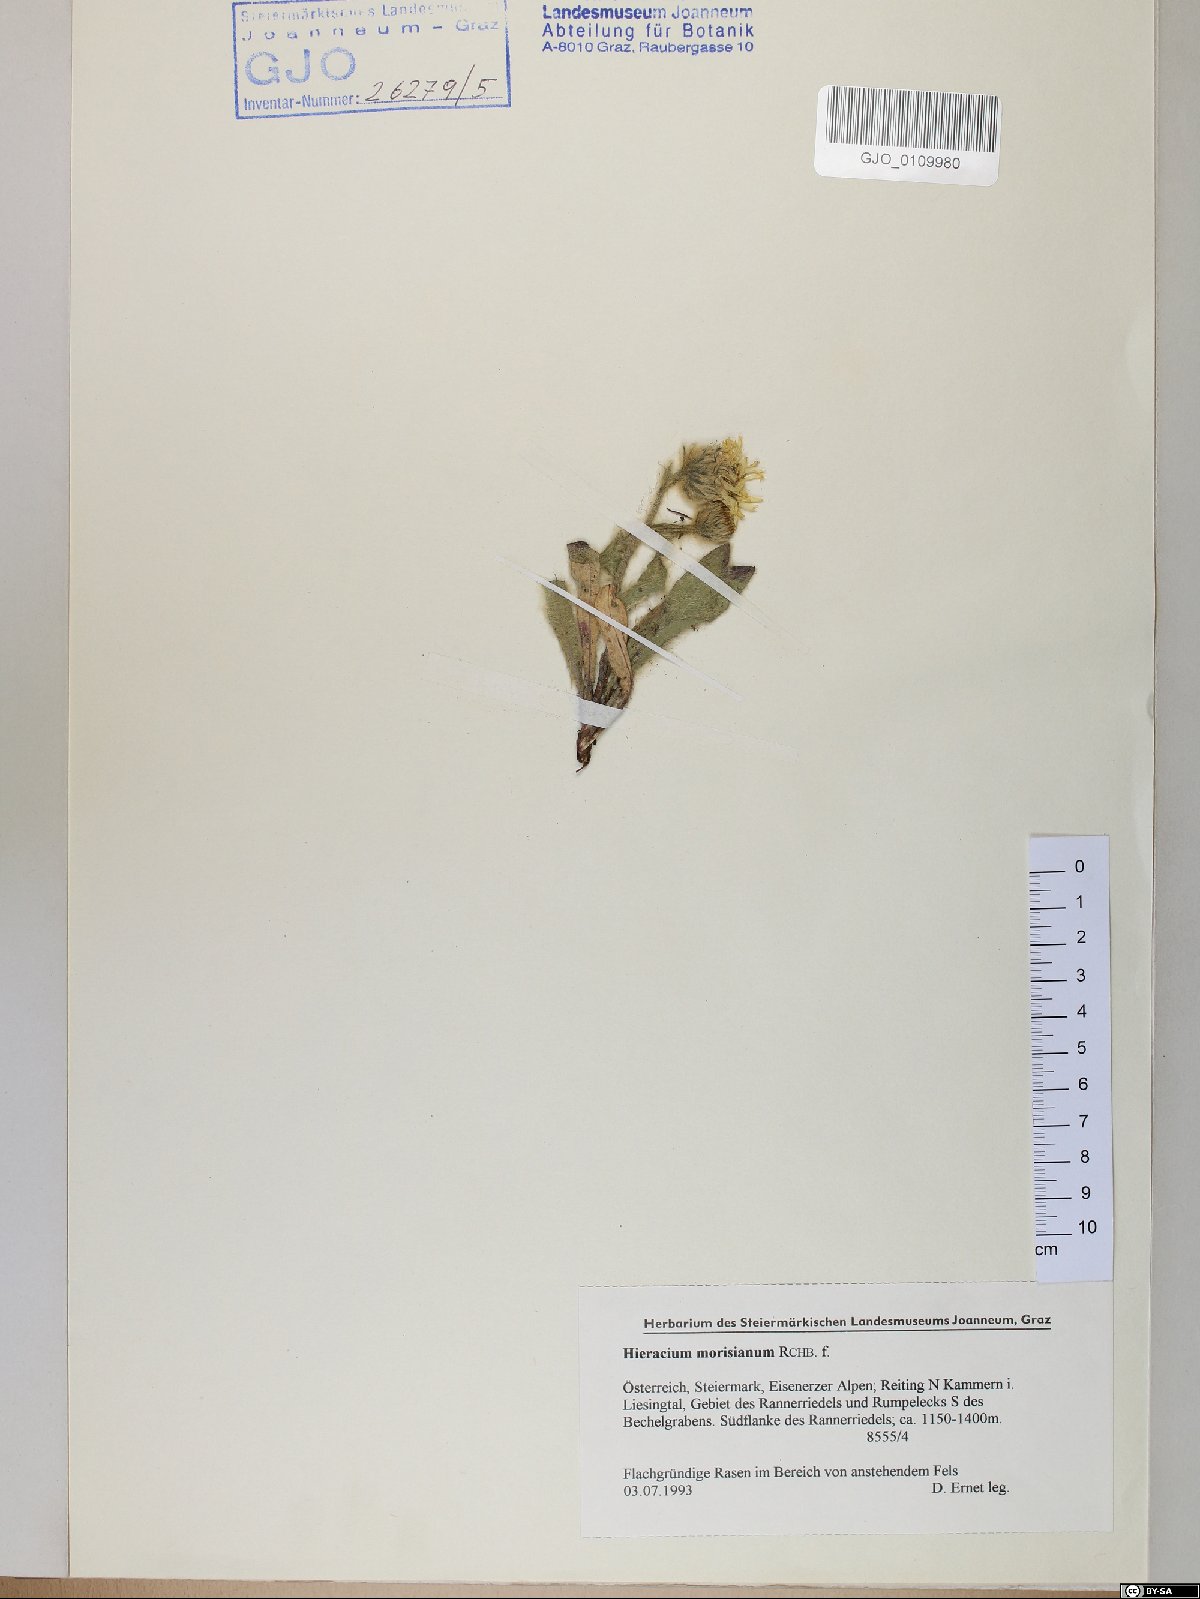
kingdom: Plantae
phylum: Tracheophyta
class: Magnoliopsida
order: Asterales
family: Asteraceae
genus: Hieracium
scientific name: Hieracium pilosum
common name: Fimbriate-pitted hawkweed
